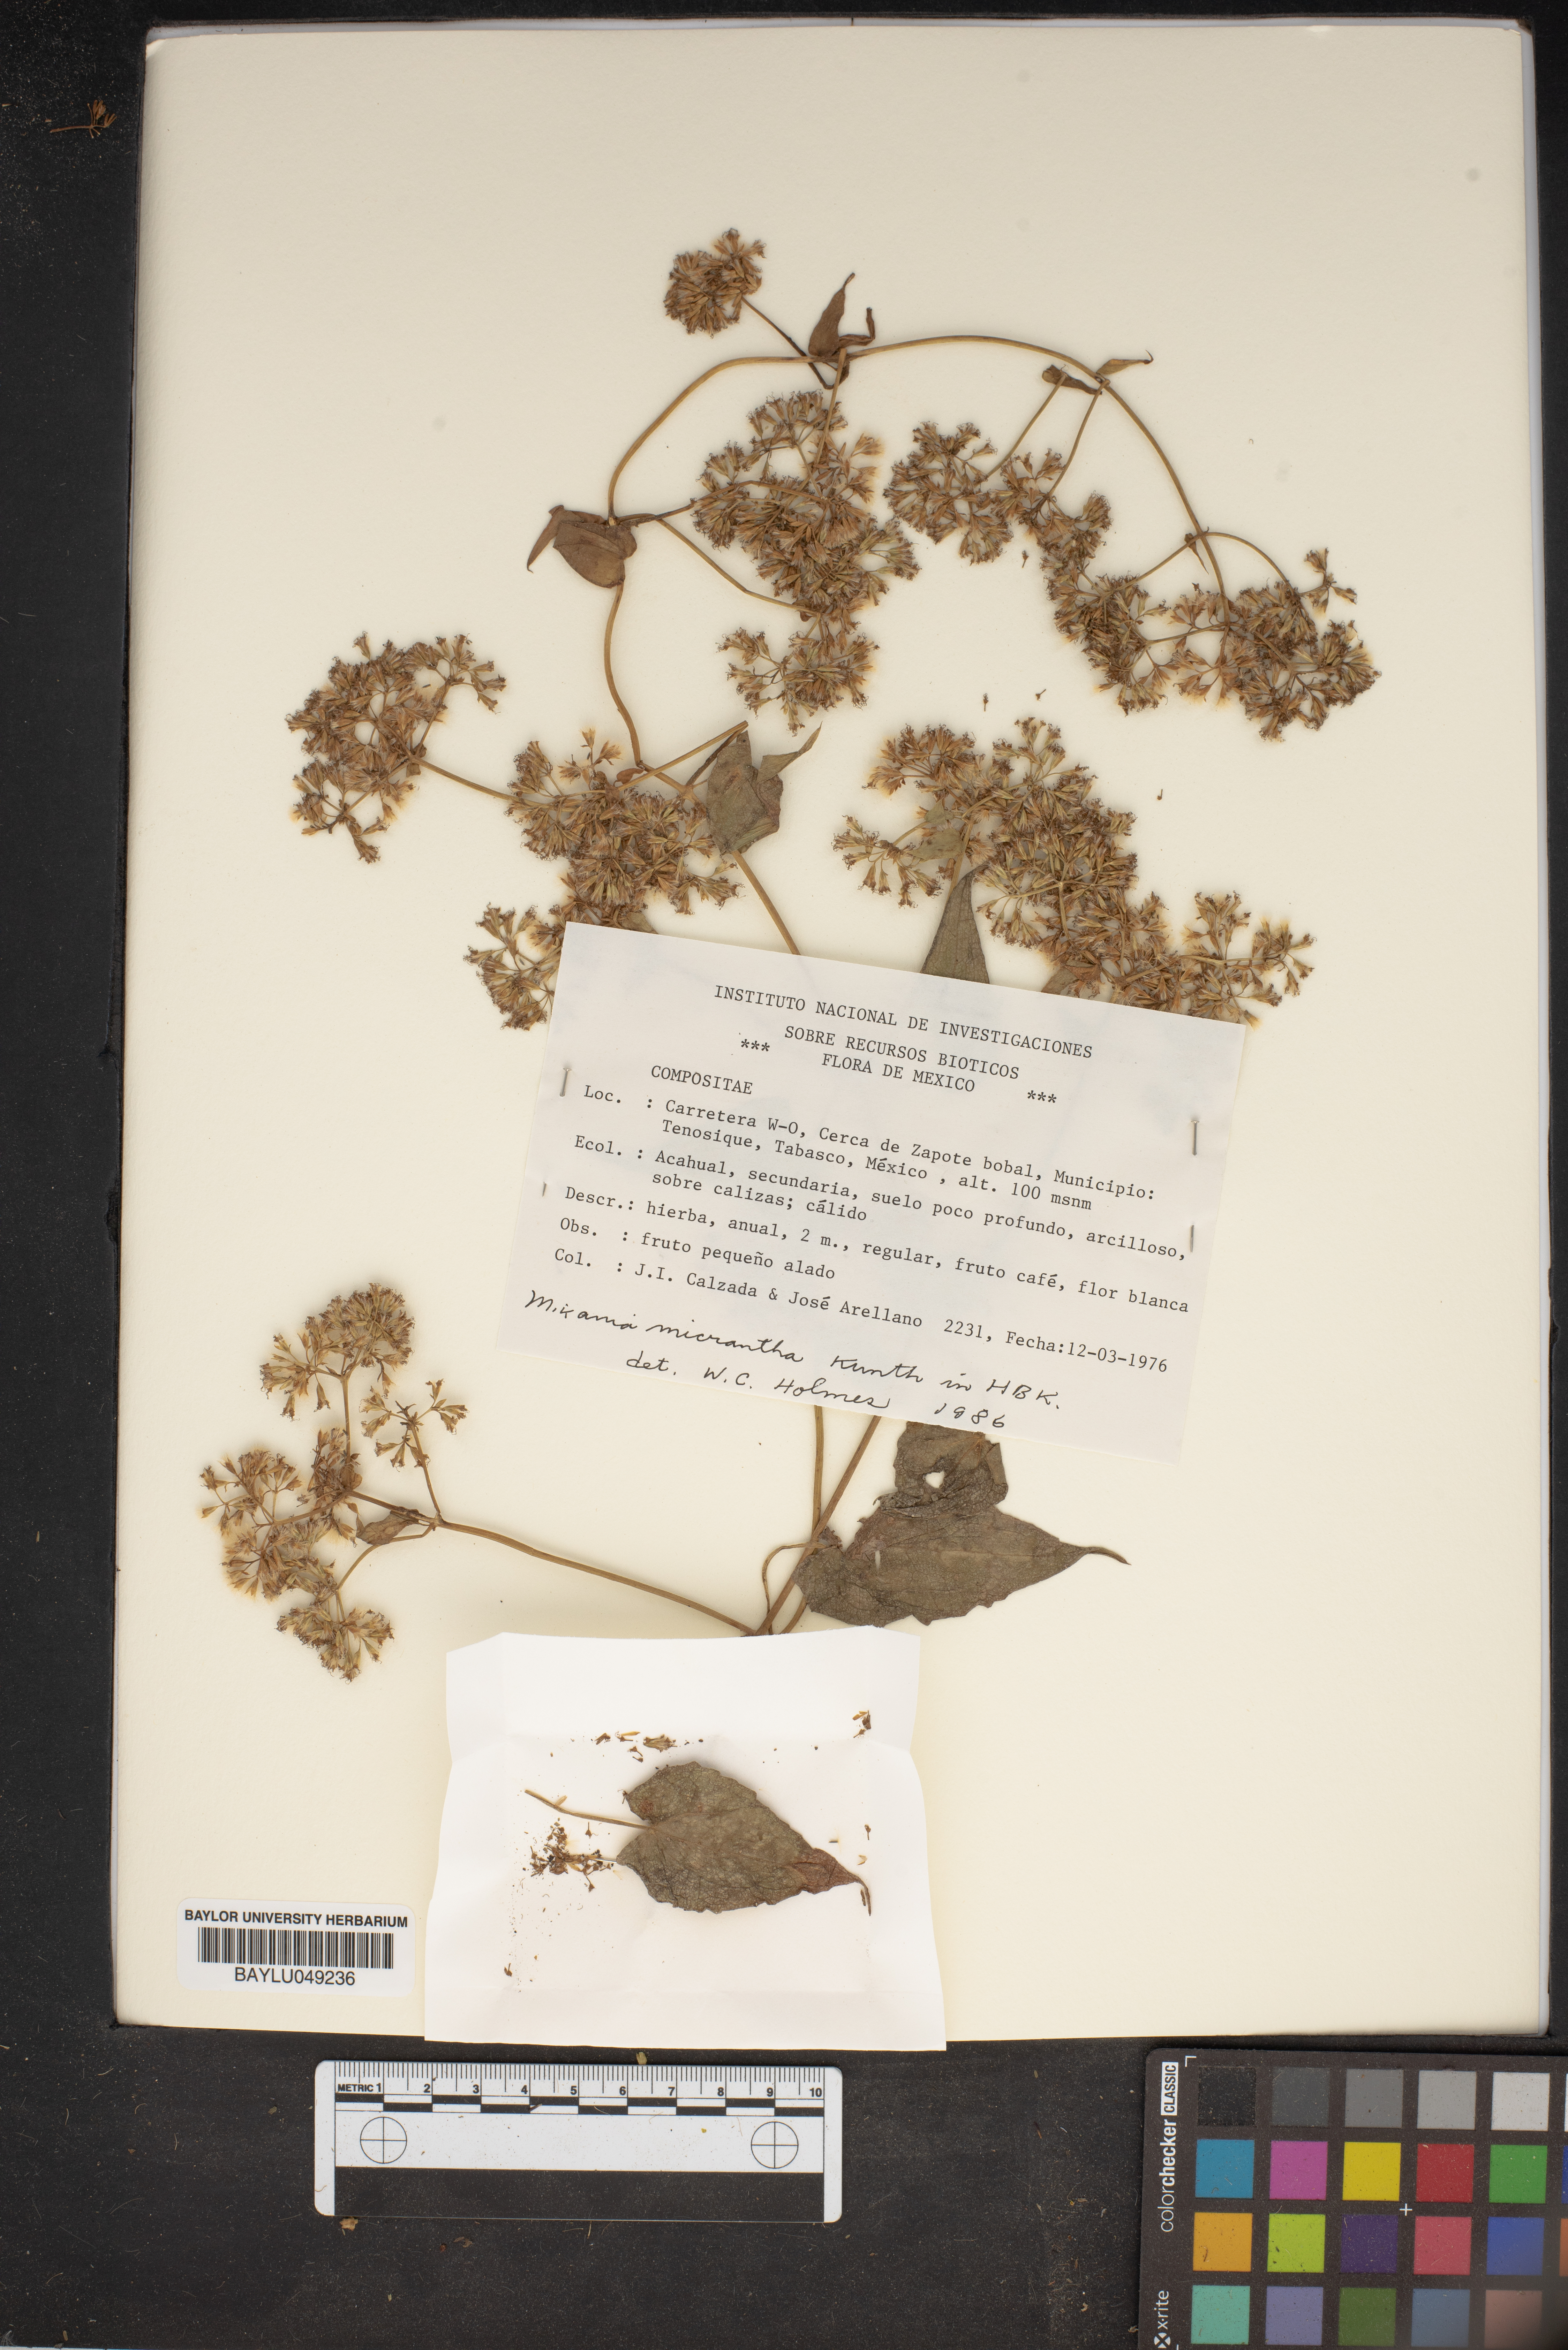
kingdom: Plantae
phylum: Tracheophyta
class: Magnoliopsida
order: Asterales
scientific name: Asterales
